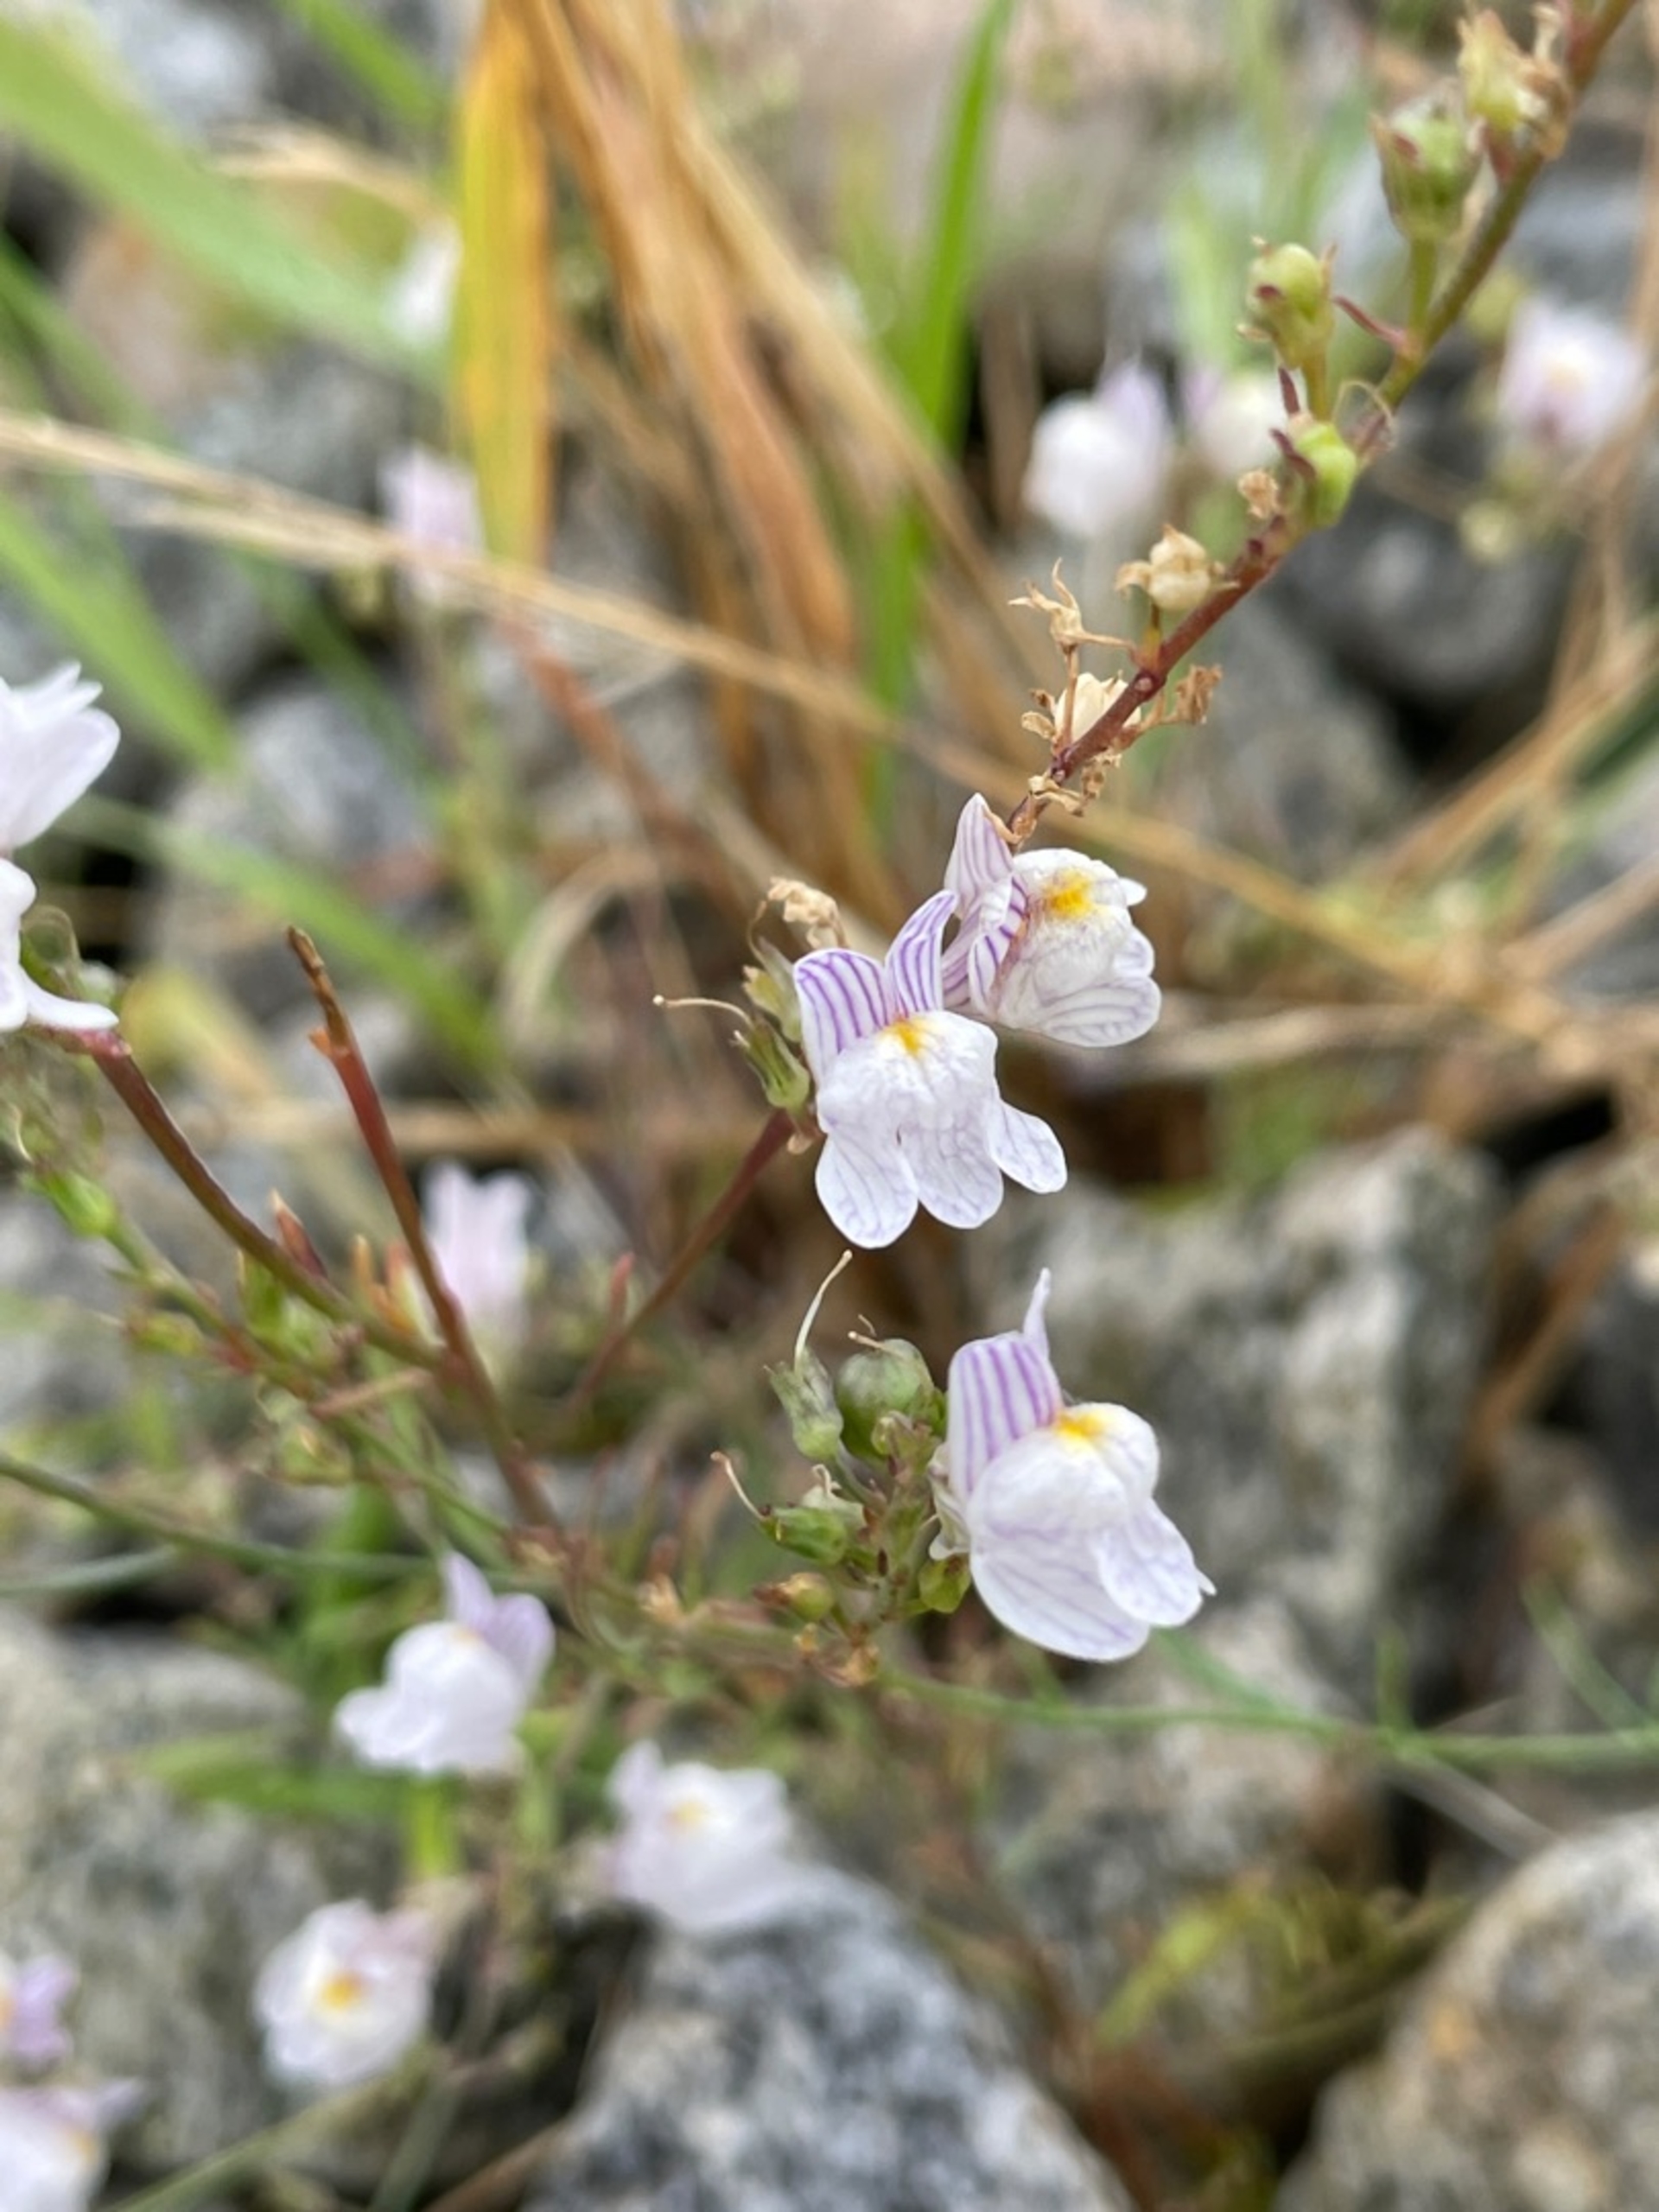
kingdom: Plantae
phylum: Tracheophyta
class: Magnoliopsida
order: Lamiales
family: Plantaginaceae
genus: Linaria
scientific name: Linaria repens
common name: Stribet torskemund
